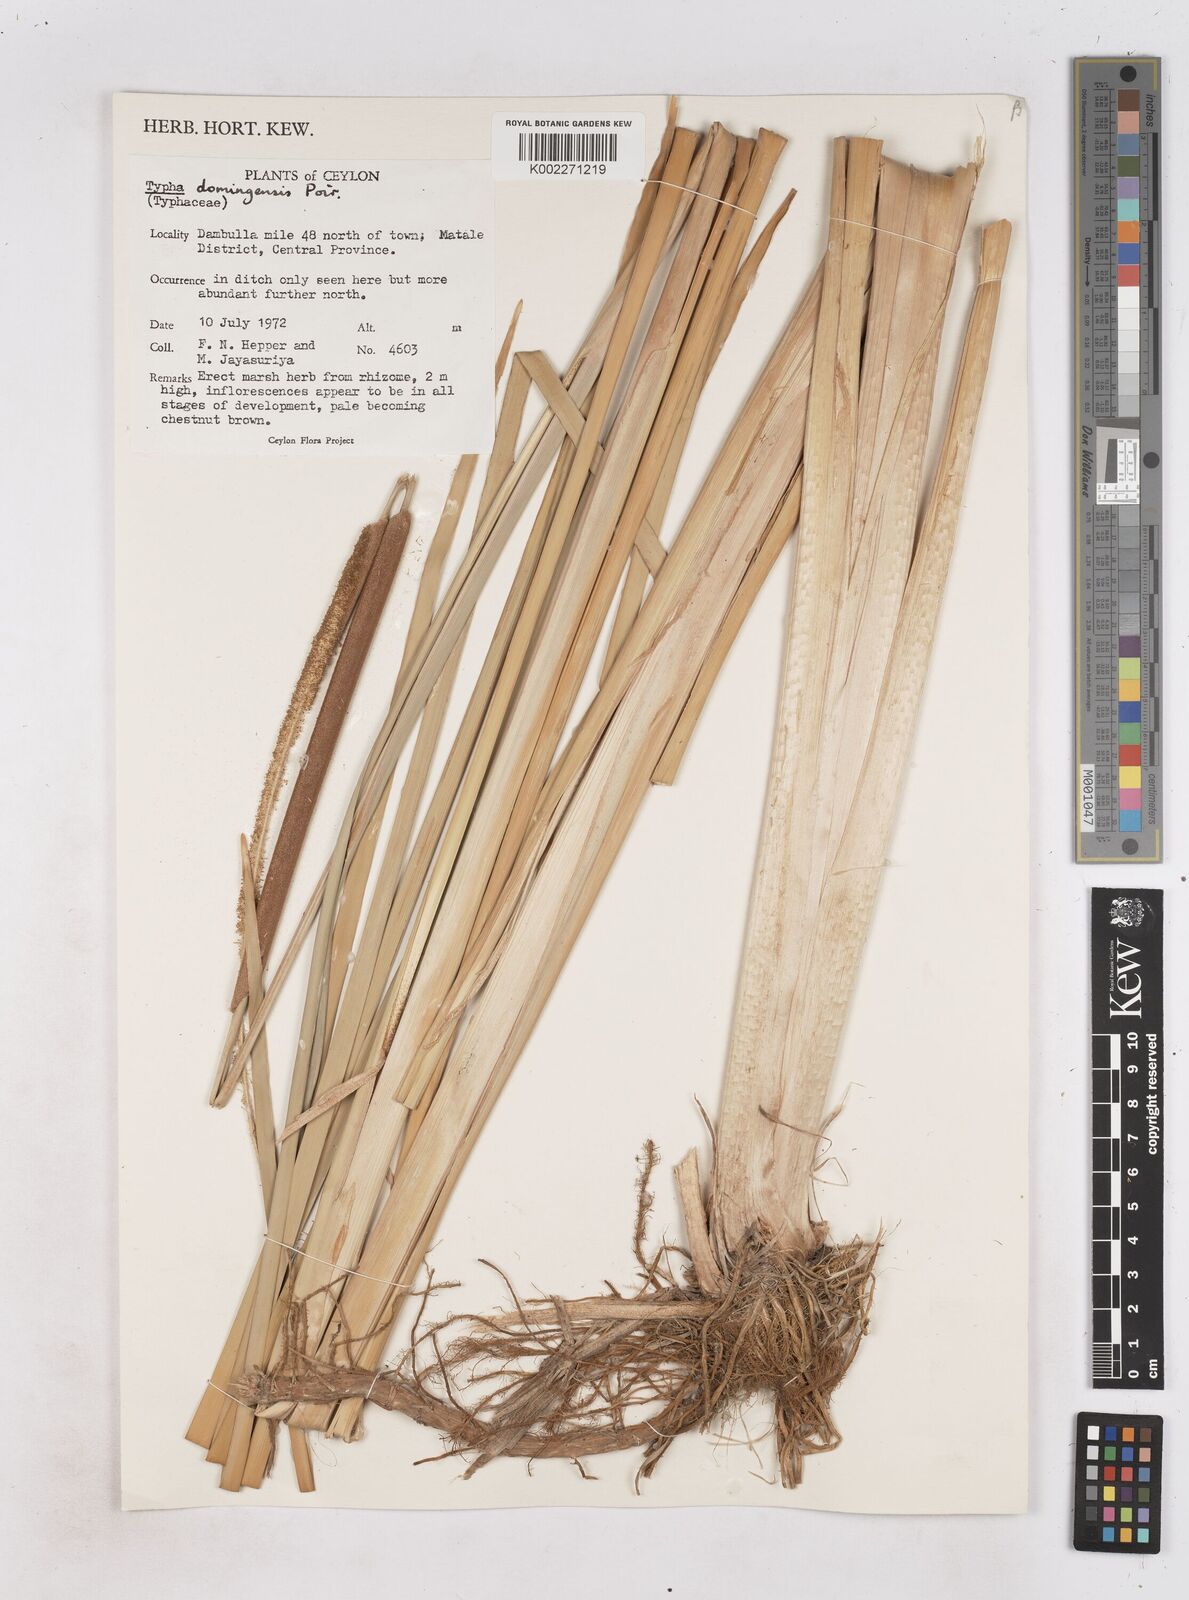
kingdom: Plantae
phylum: Tracheophyta
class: Liliopsida
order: Poales
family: Typhaceae
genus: Typha
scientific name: Typha domingensis
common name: Southern cattail
